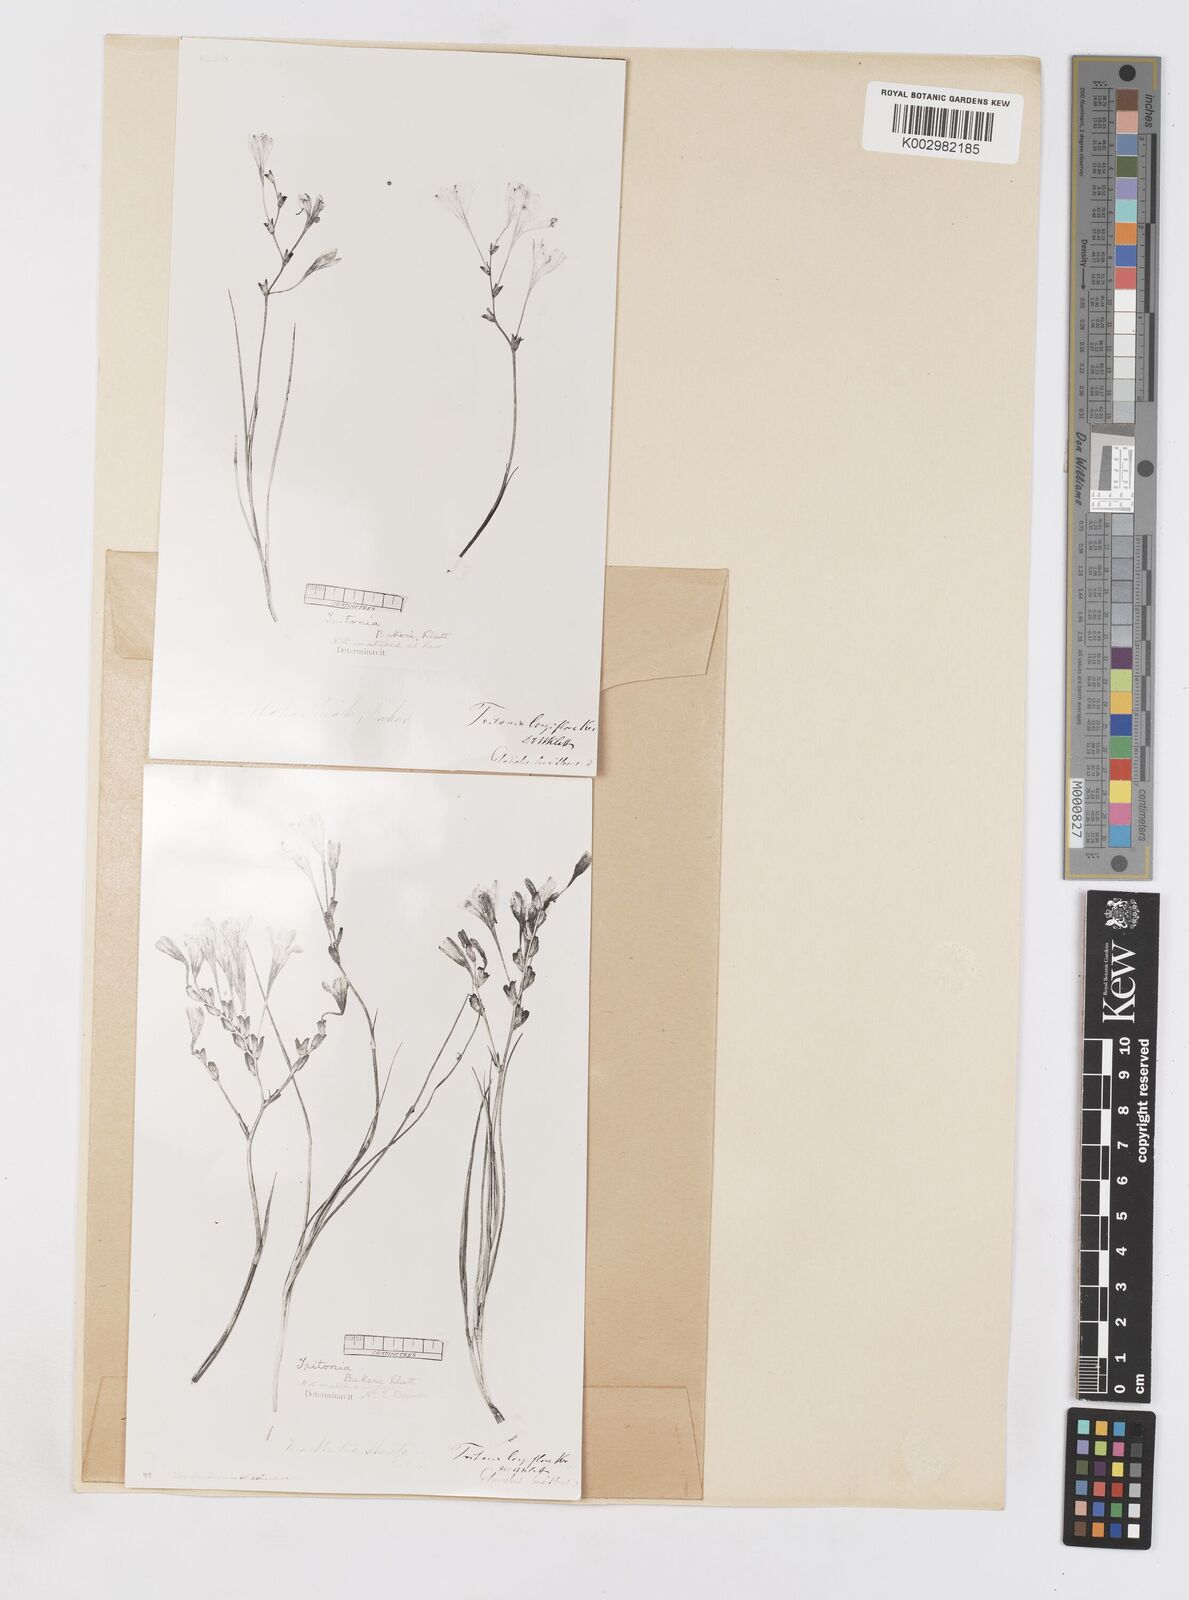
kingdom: Plantae
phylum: Tracheophyta
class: Liliopsida
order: Asparagales
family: Iridaceae
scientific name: Iridaceae
